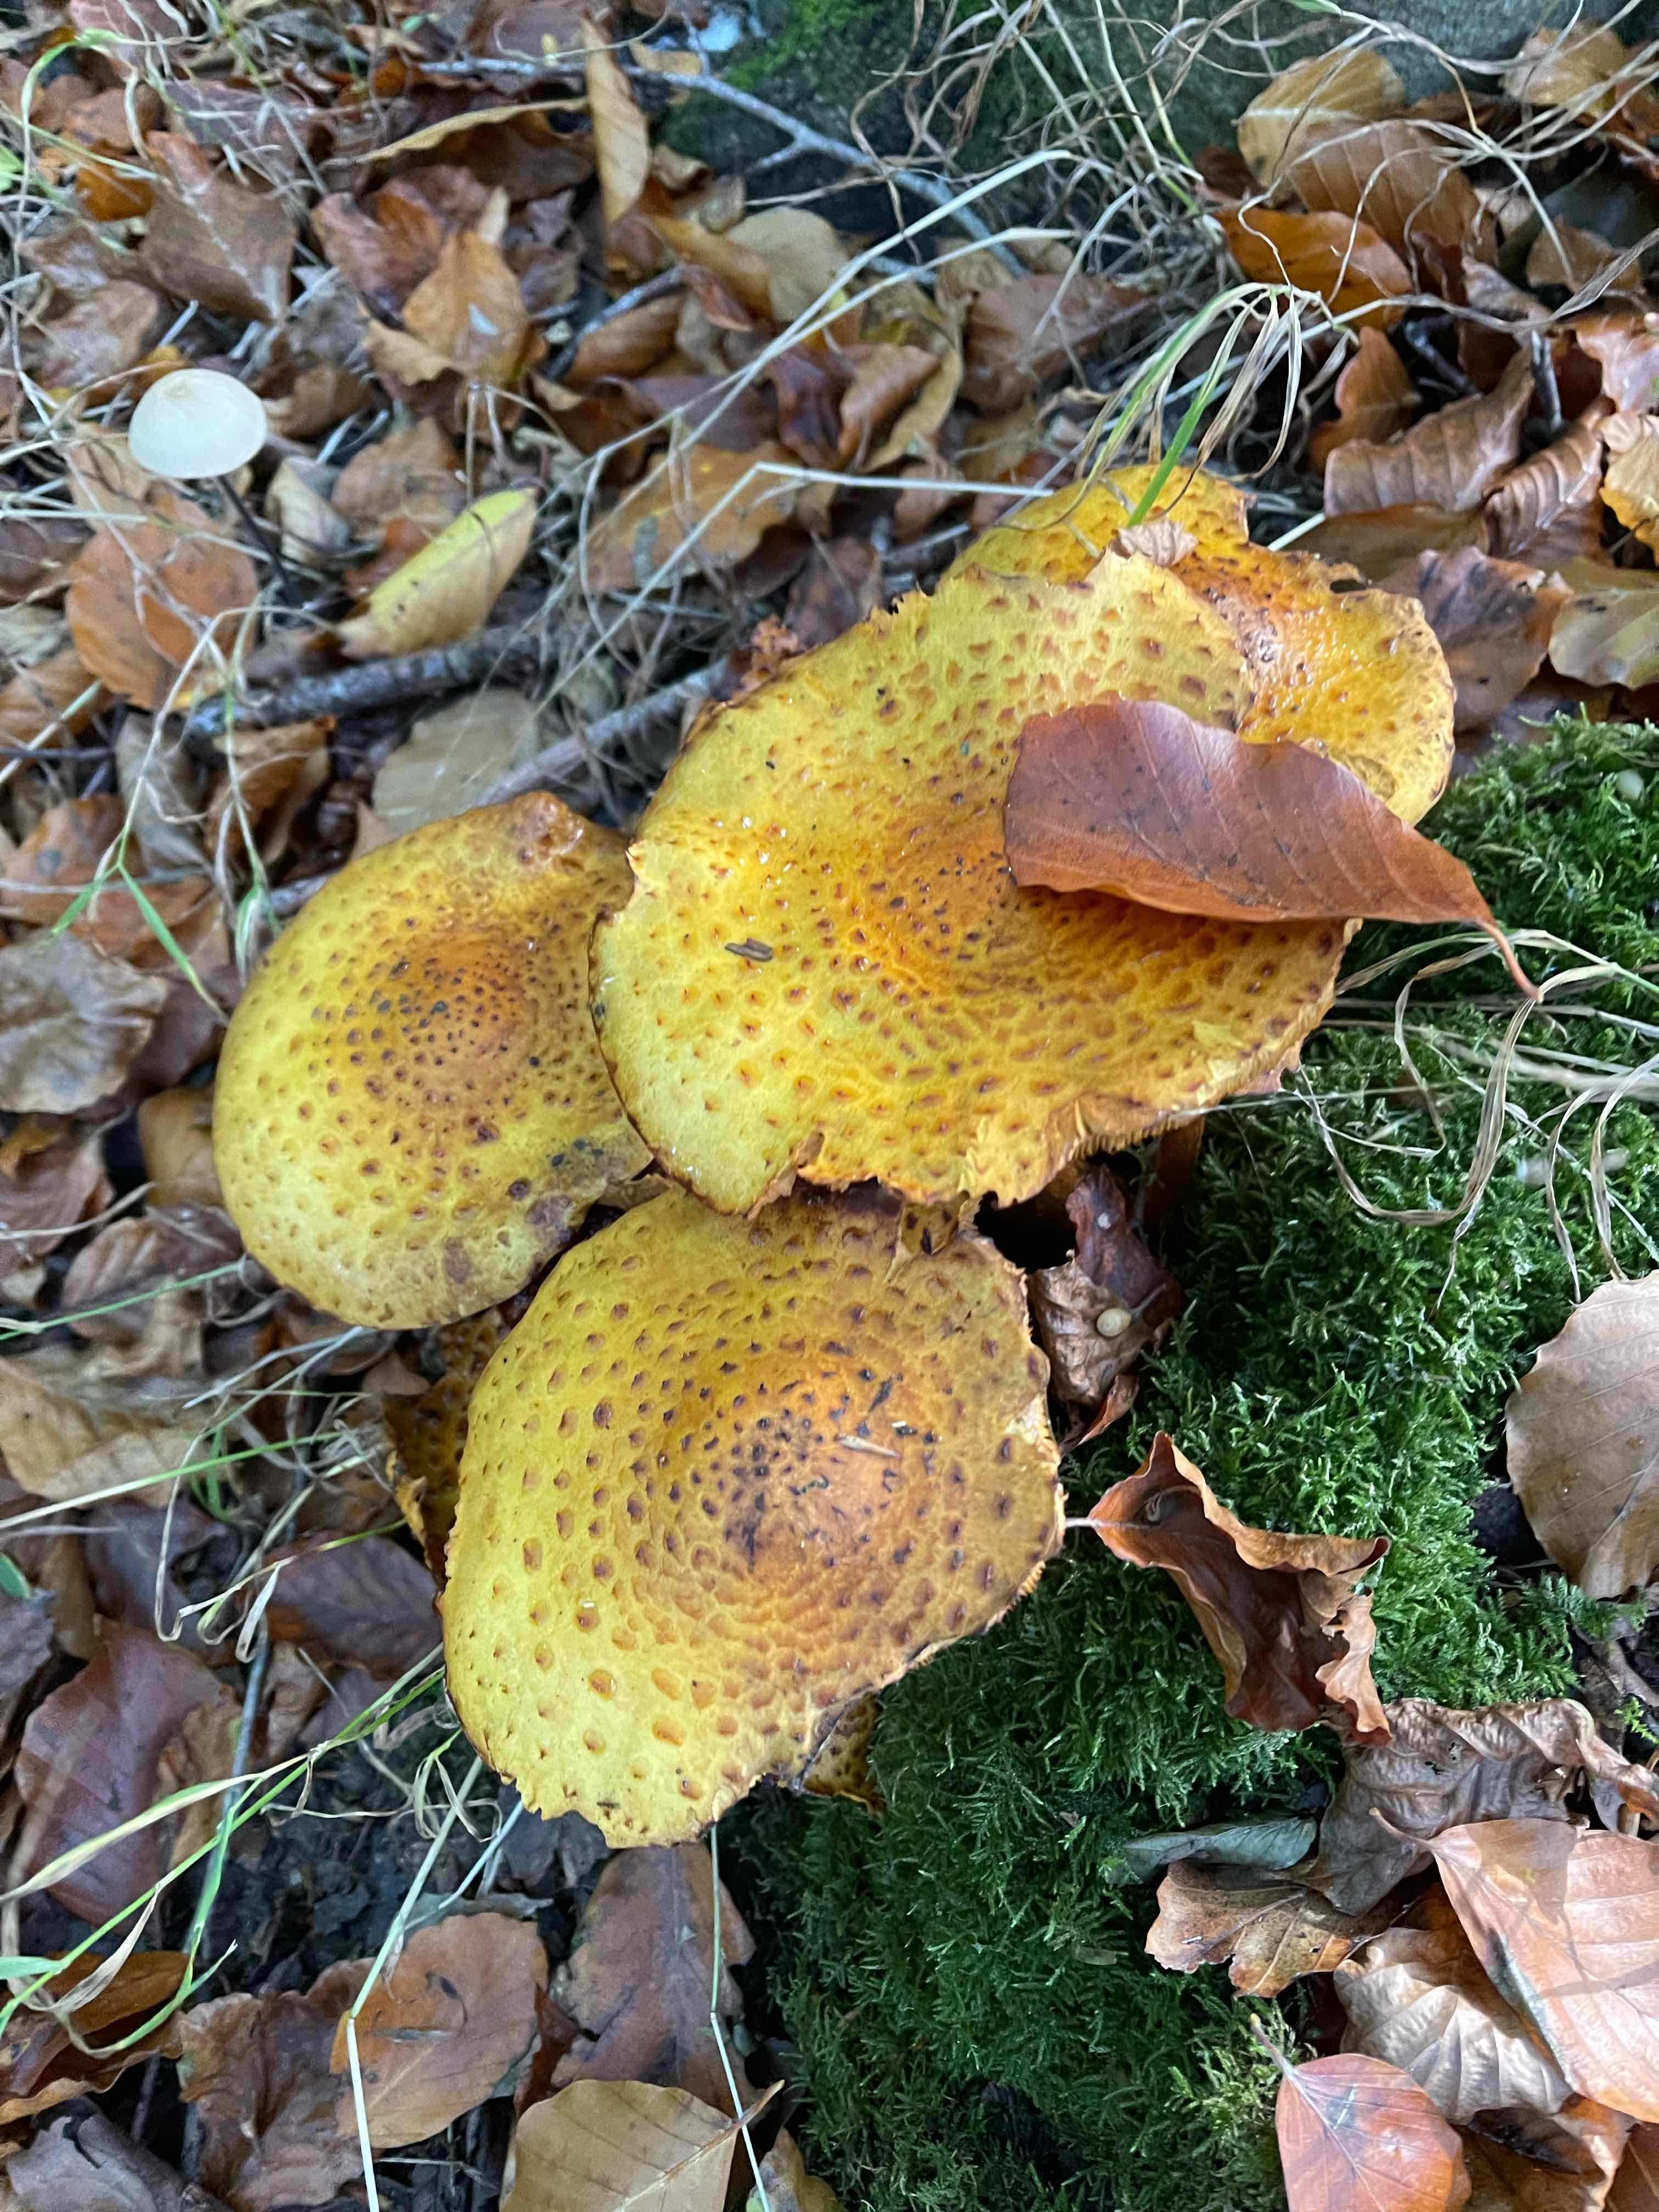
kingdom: Fungi
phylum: Basidiomycota
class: Agaricomycetes
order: Agaricales
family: Strophariaceae
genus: Pholiota
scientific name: Pholiota jahnii
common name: slimet skælhat
